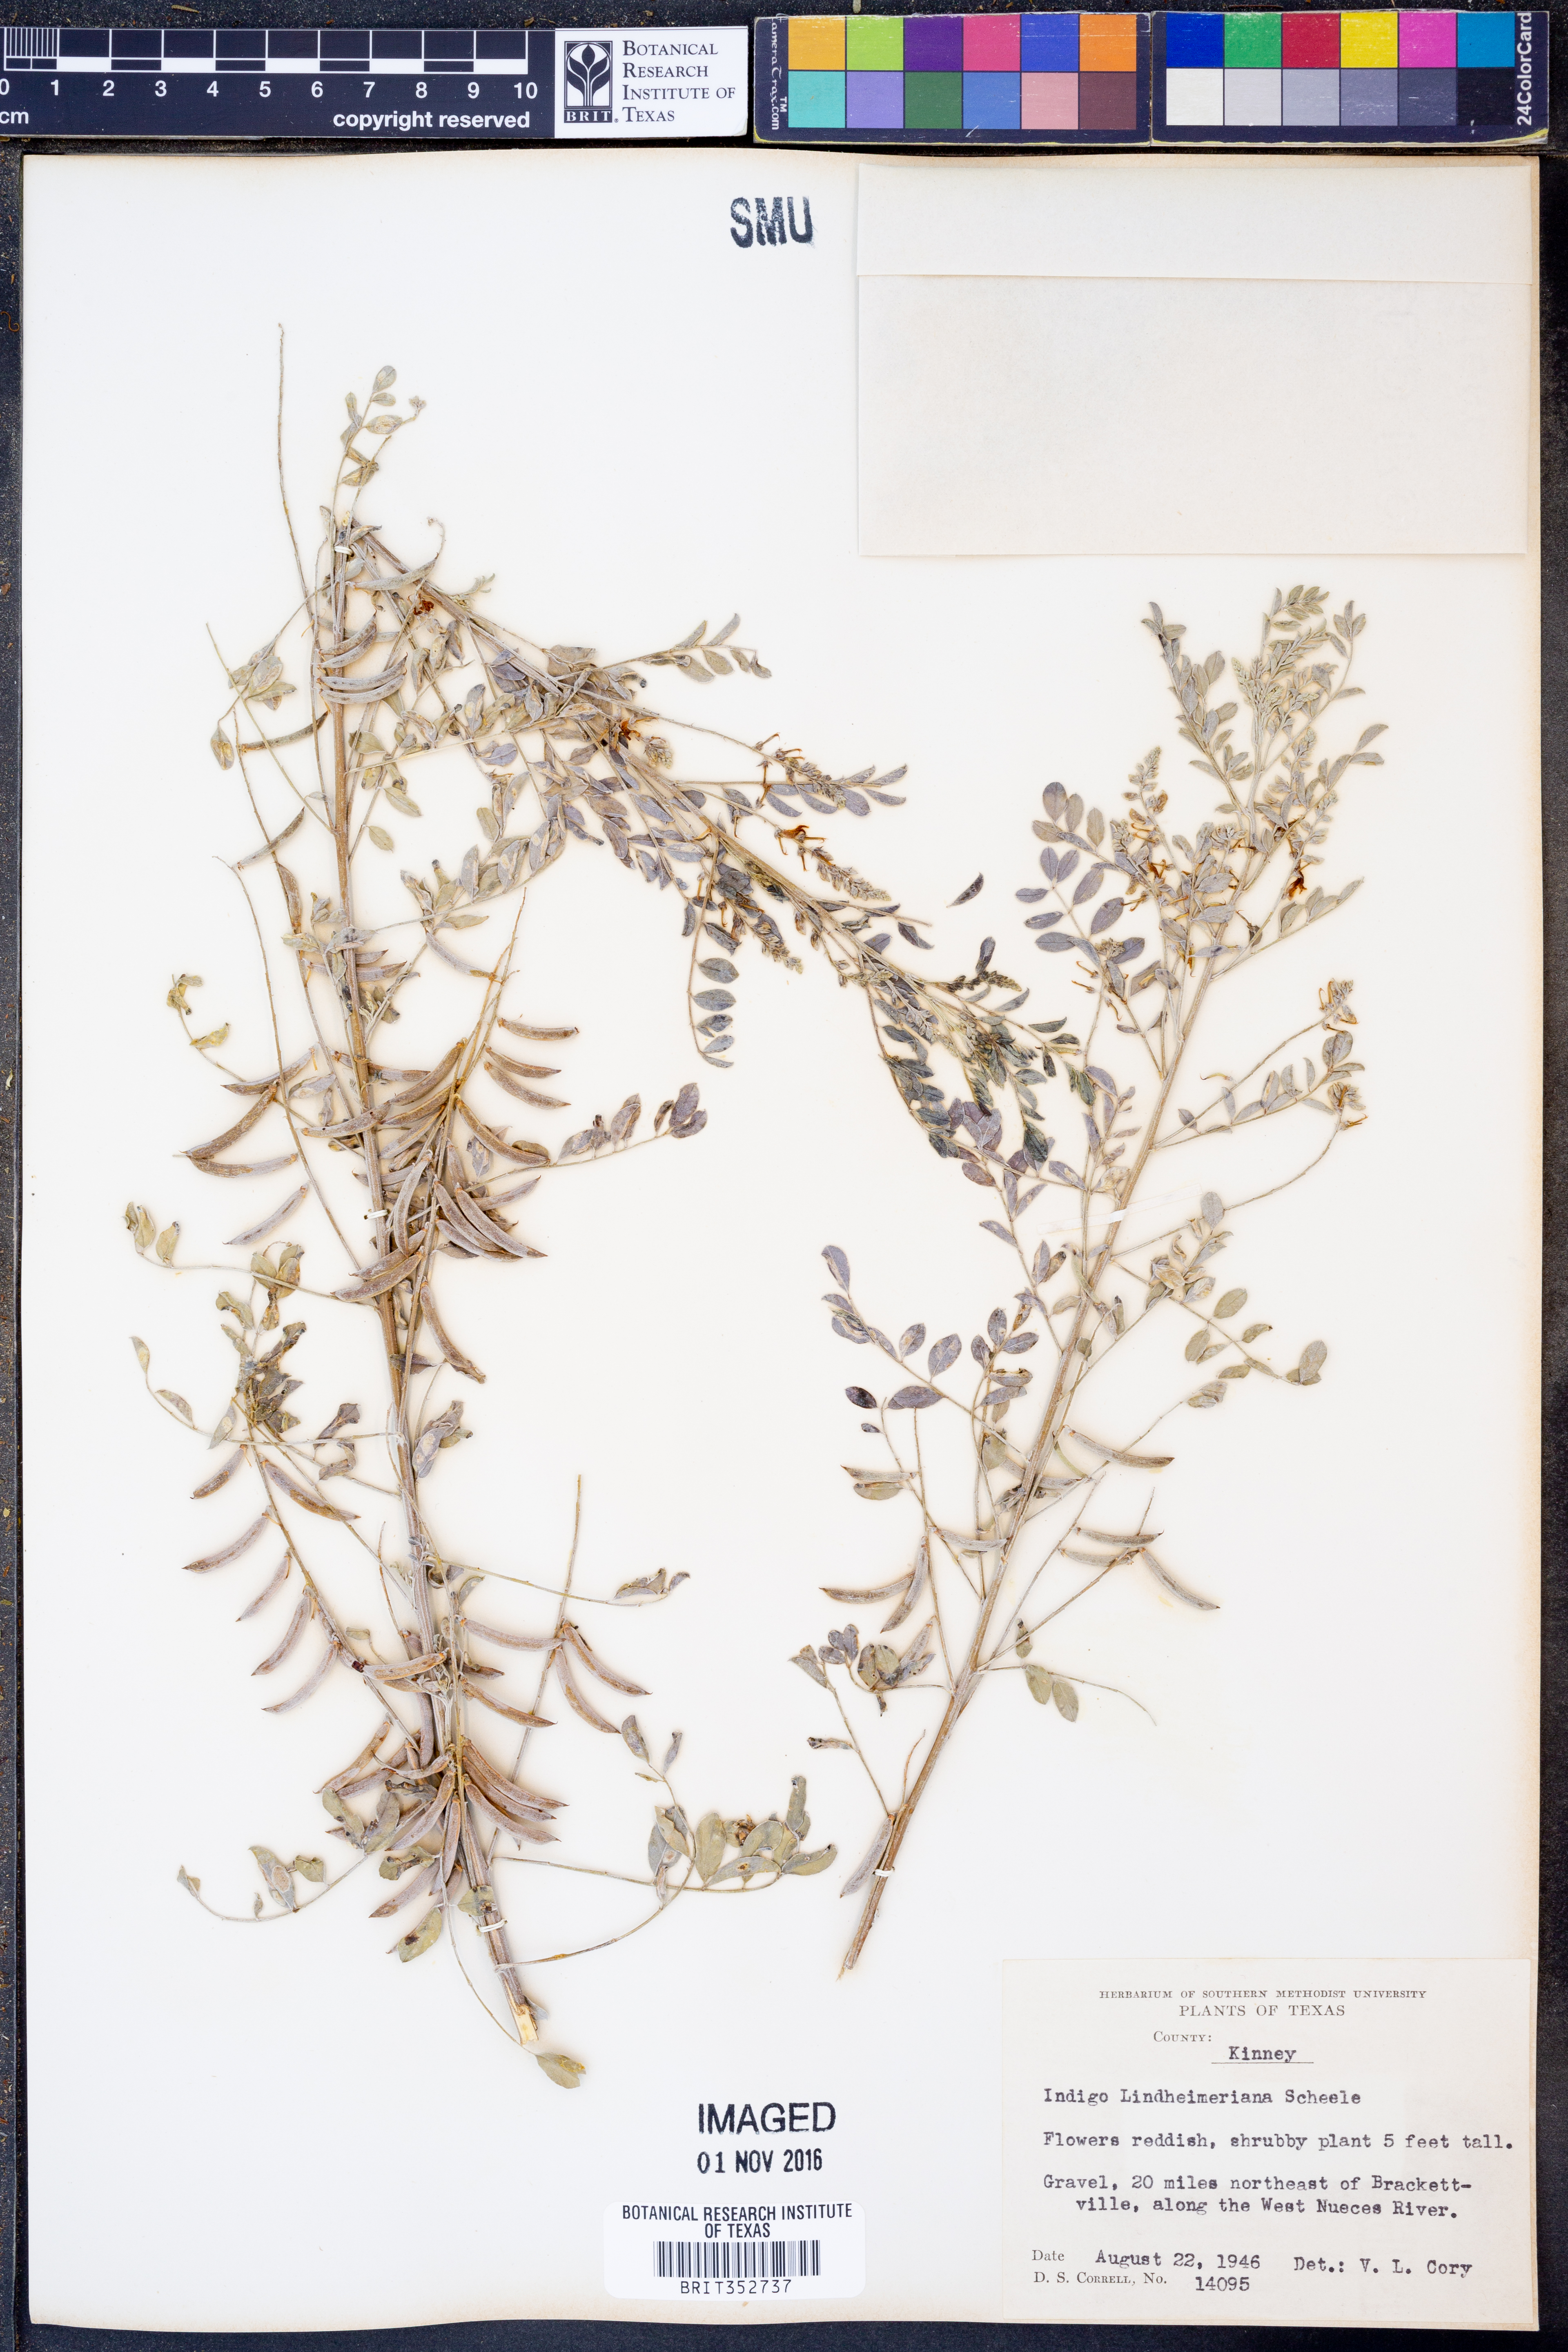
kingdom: Plantae
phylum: Tracheophyta
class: Magnoliopsida
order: Fabales
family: Fabaceae
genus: Indigofera
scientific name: Indigofera lindheimeriana
